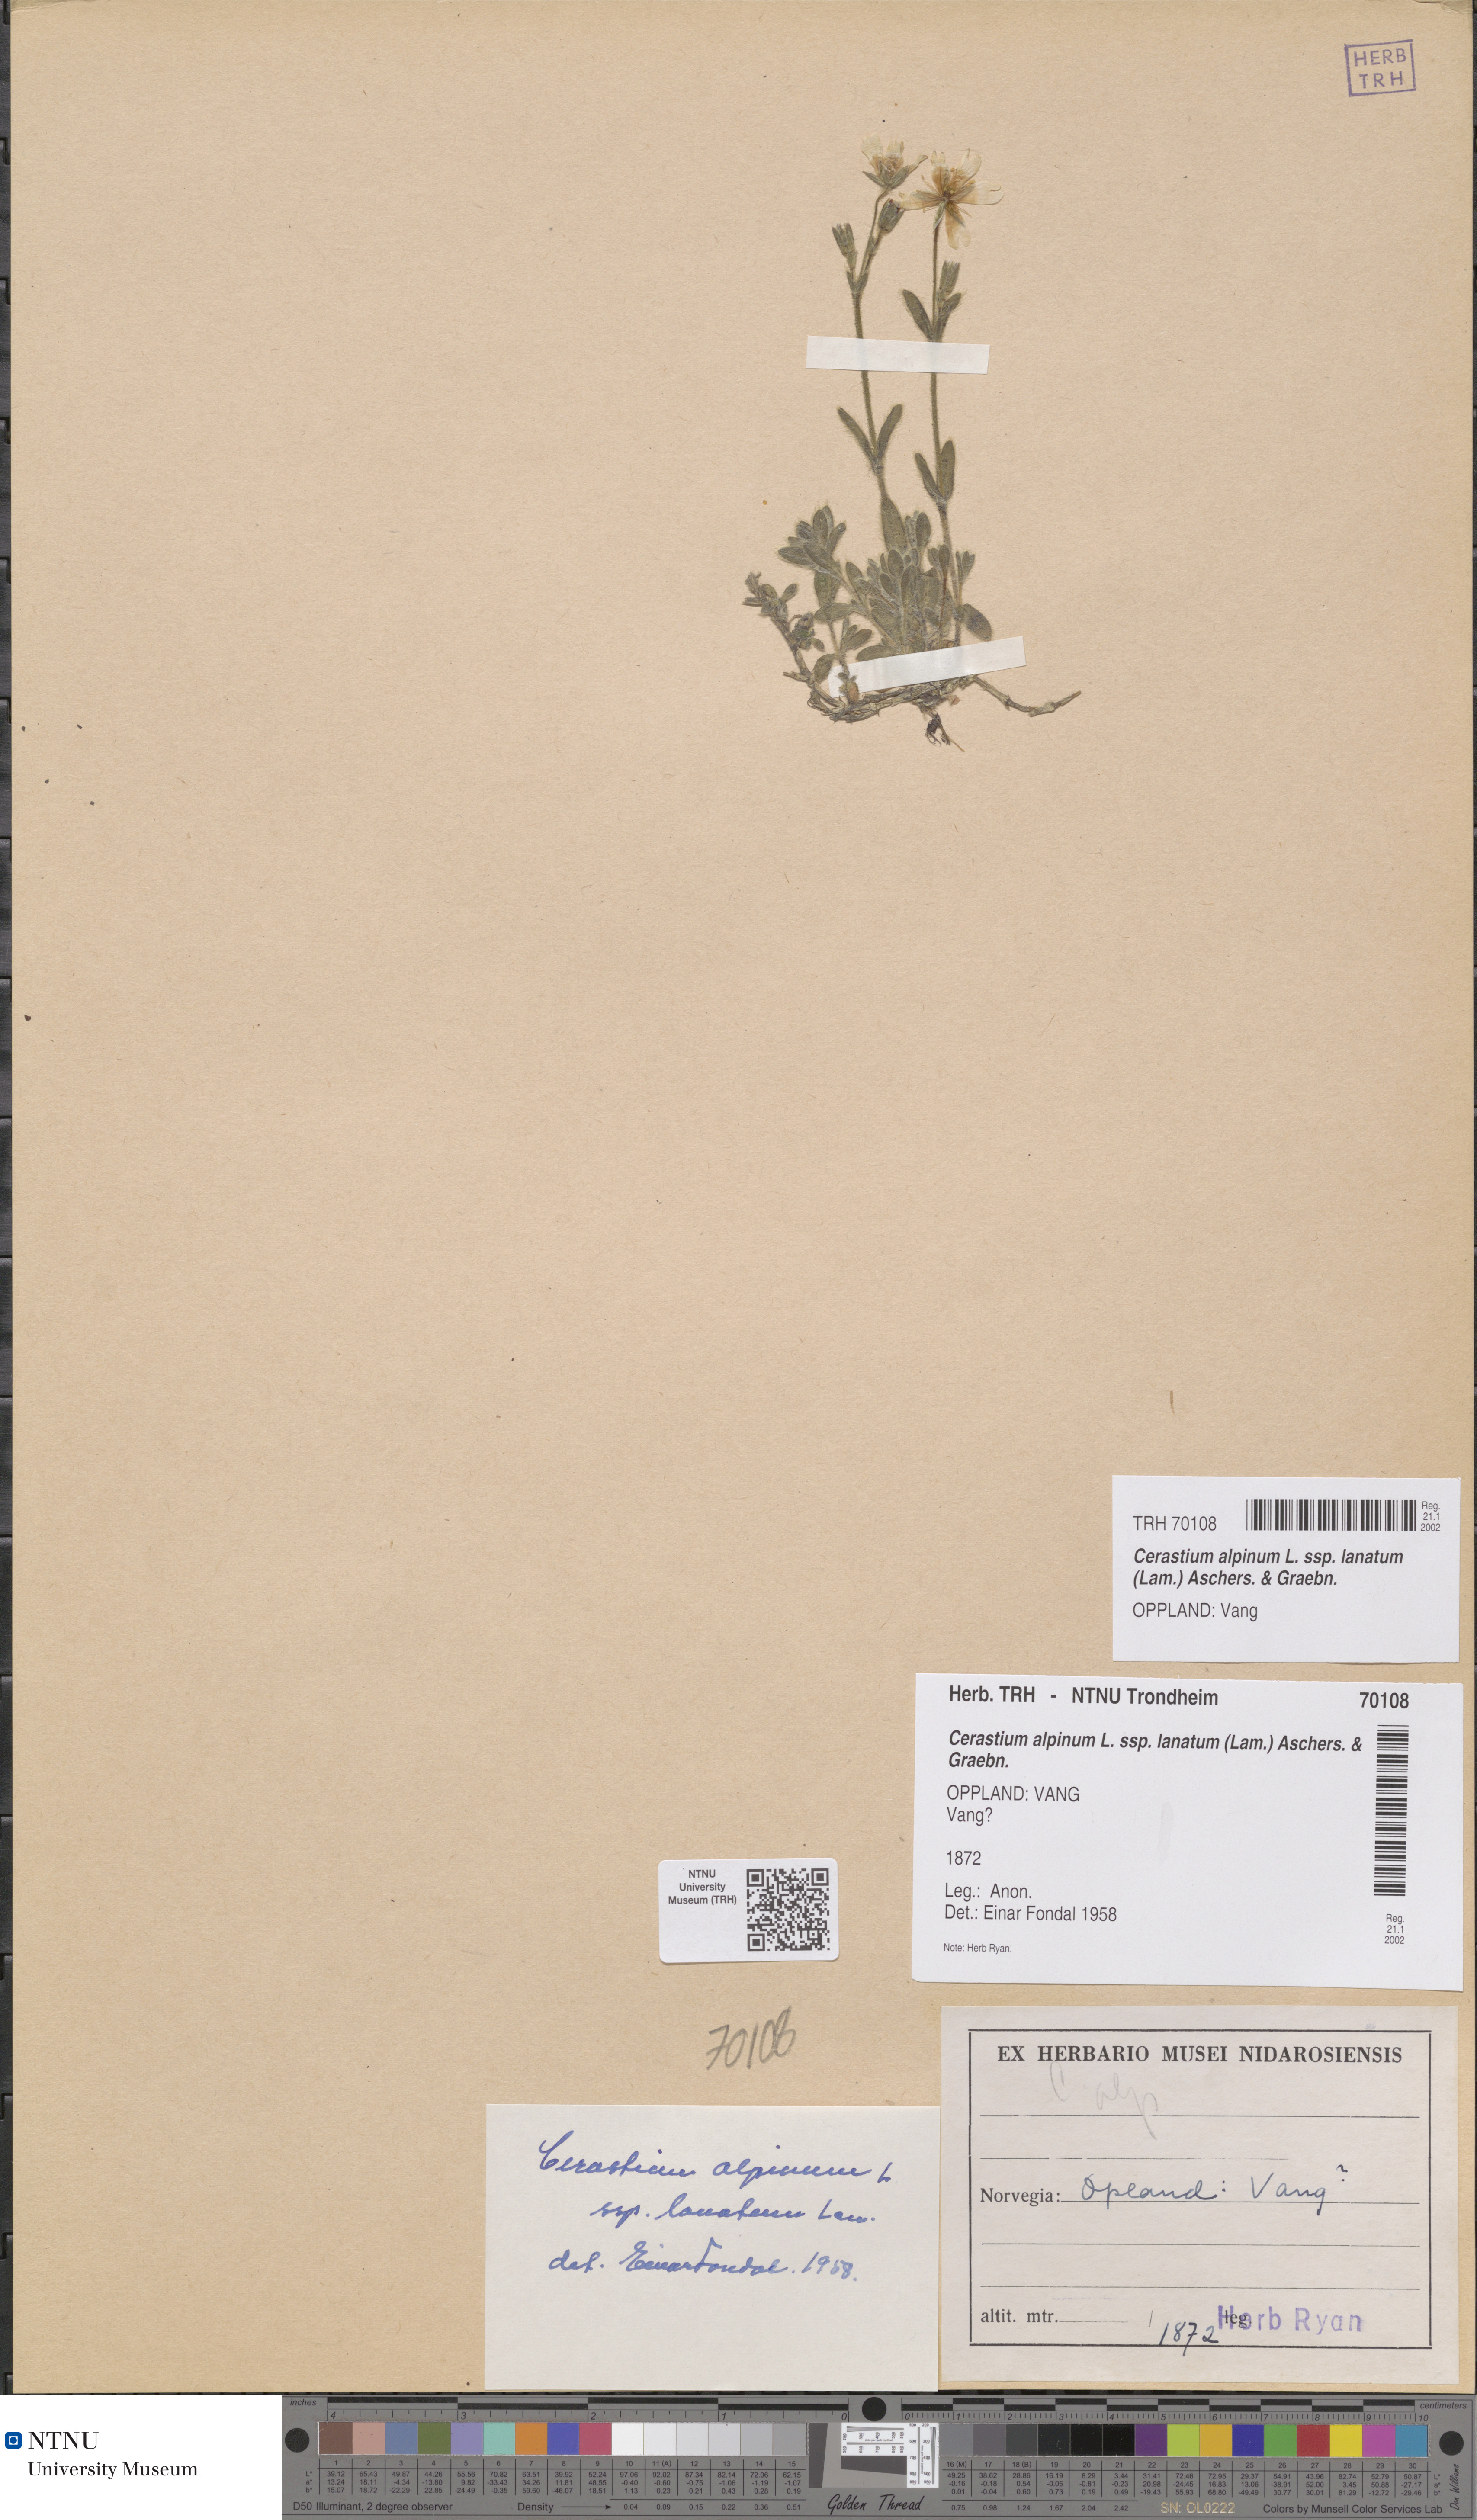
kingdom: Plantae
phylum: Tracheophyta
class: Magnoliopsida
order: Caryophyllales
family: Caryophyllaceae
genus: Cerastium
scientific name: Cerastium alpinum
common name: Alpine mouse-ear
